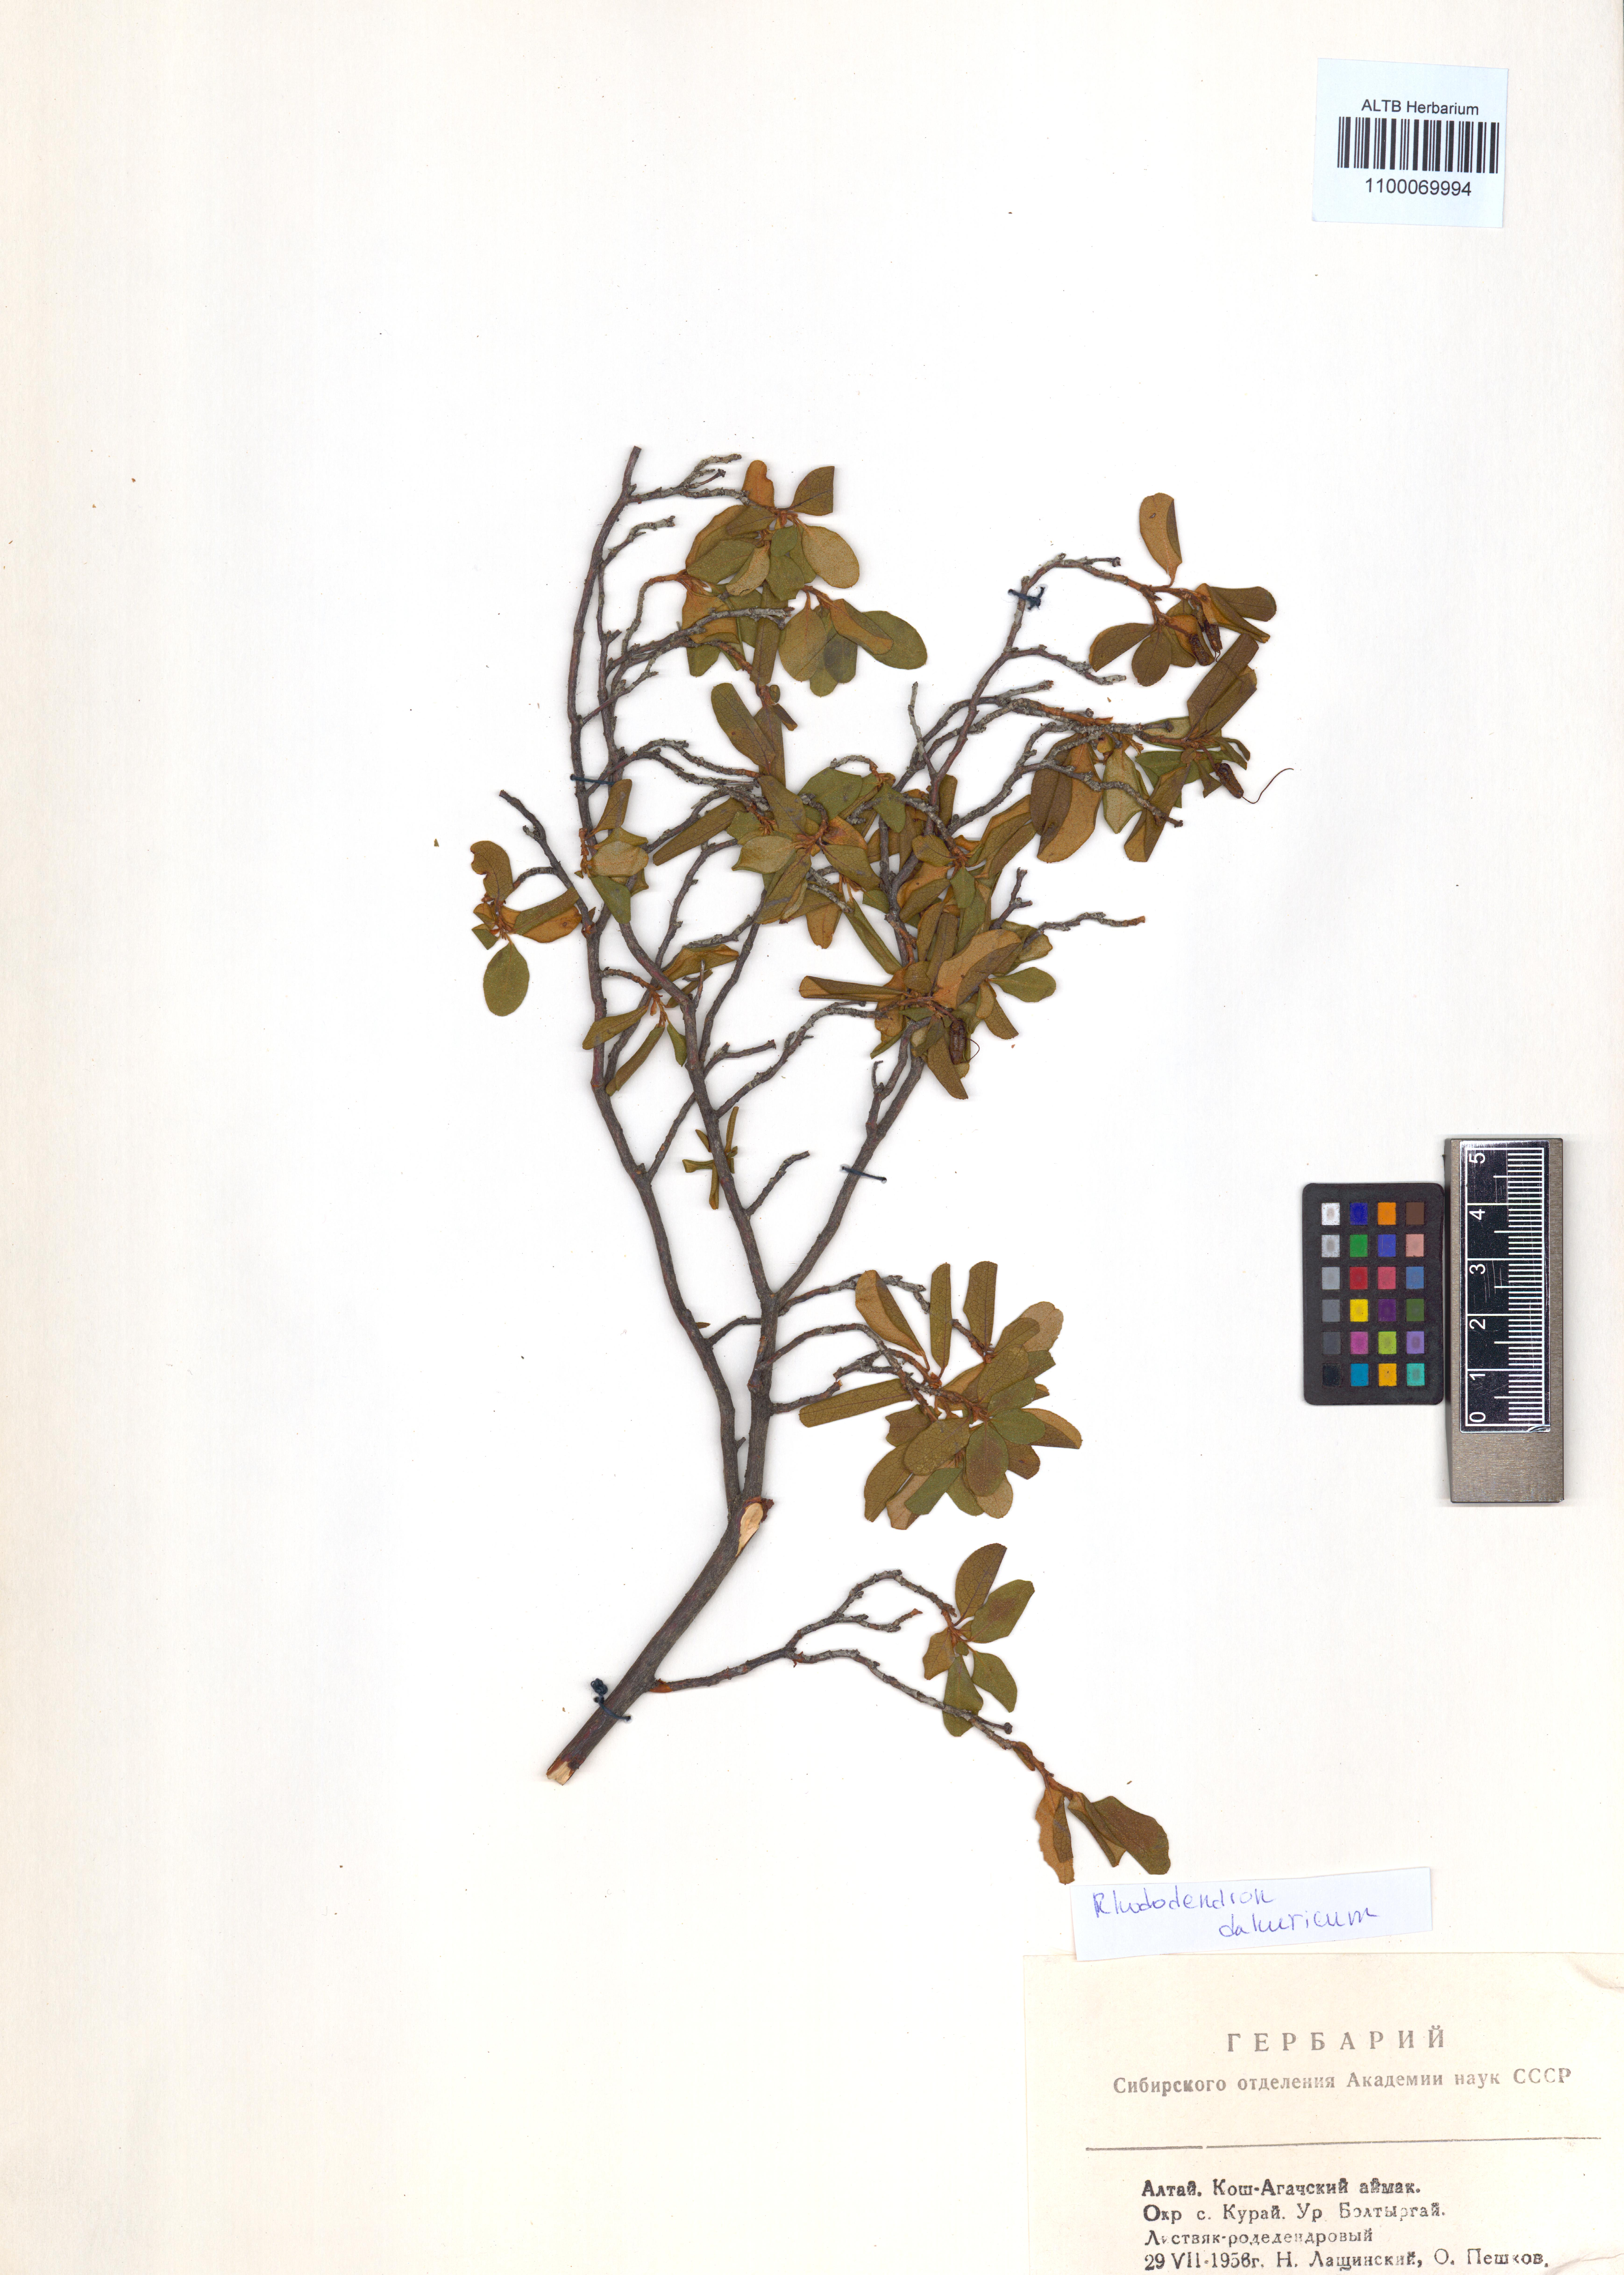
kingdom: Plantae
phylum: Tracheophyta
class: Magnoliopsida
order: Ericales
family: Ericaceae
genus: Rhododendron
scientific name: Rhododendron dauricum
